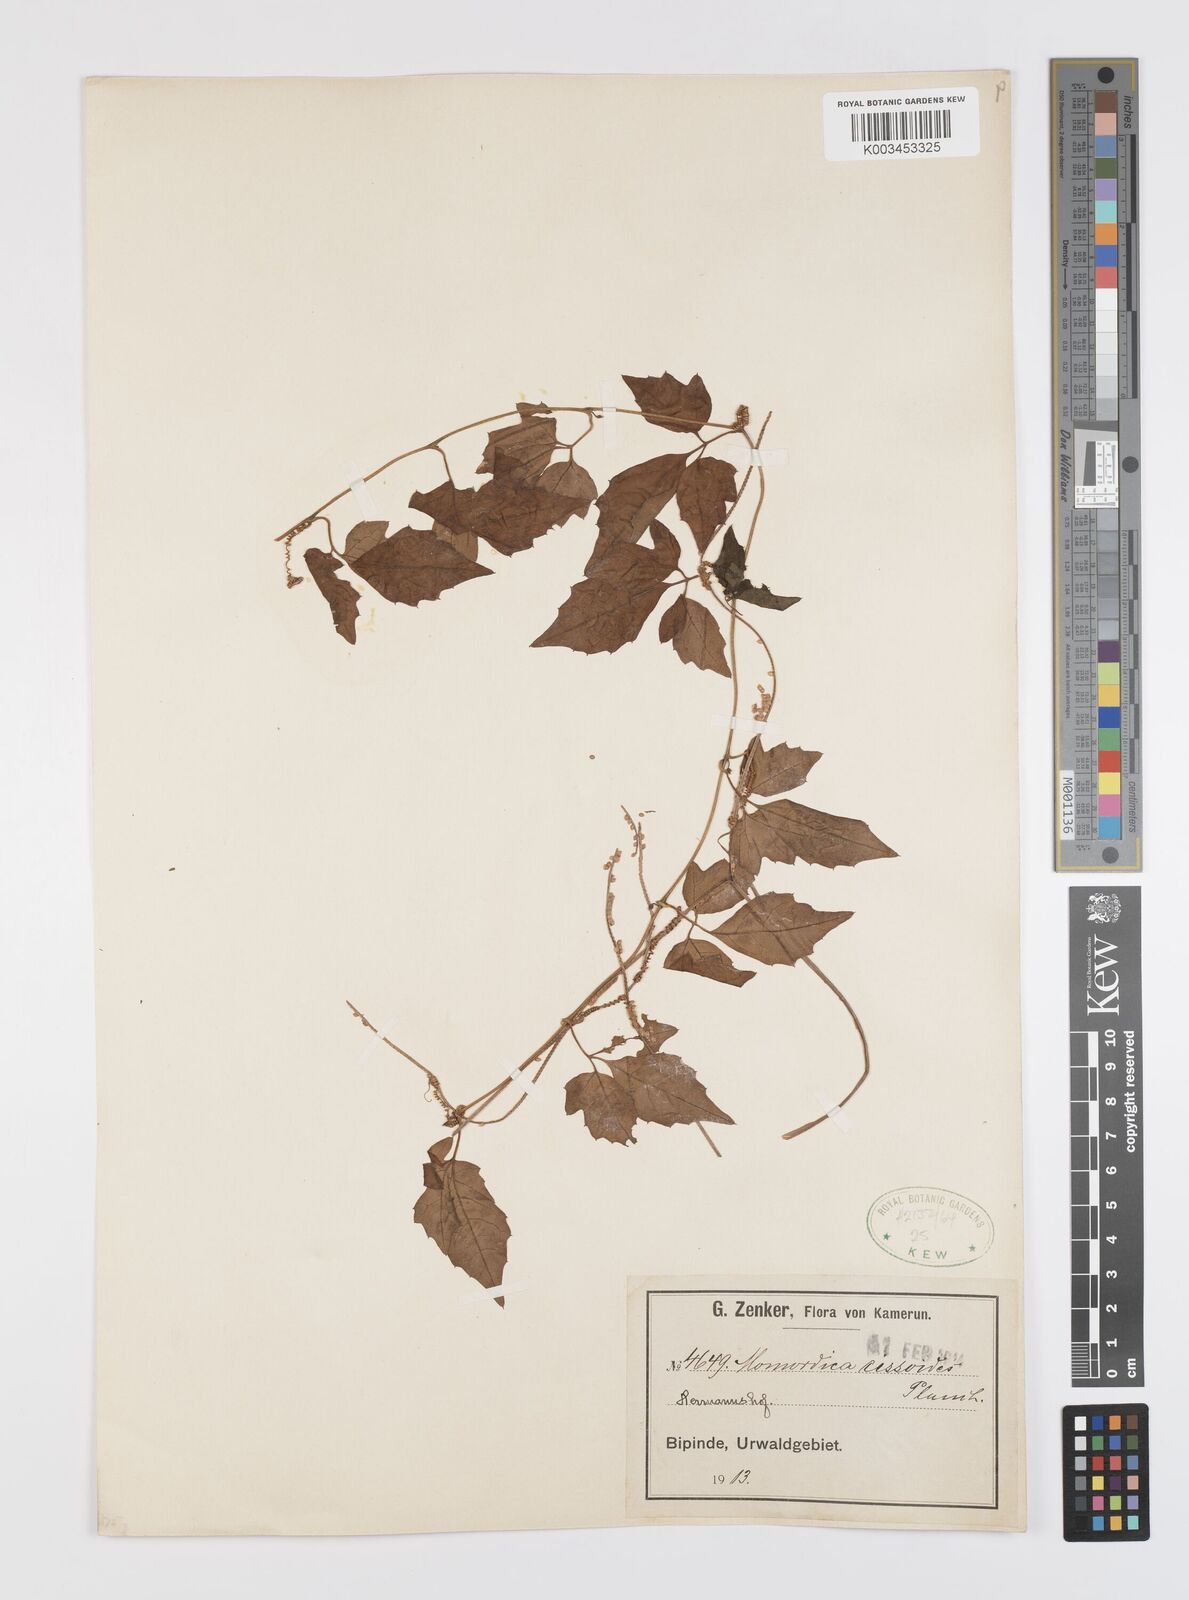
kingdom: Plantae
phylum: Tracheophyta
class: Magnoliopsida
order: Cucurbitales
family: Cucurbitaceae
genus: Momordica
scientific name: Momordica cissoides
